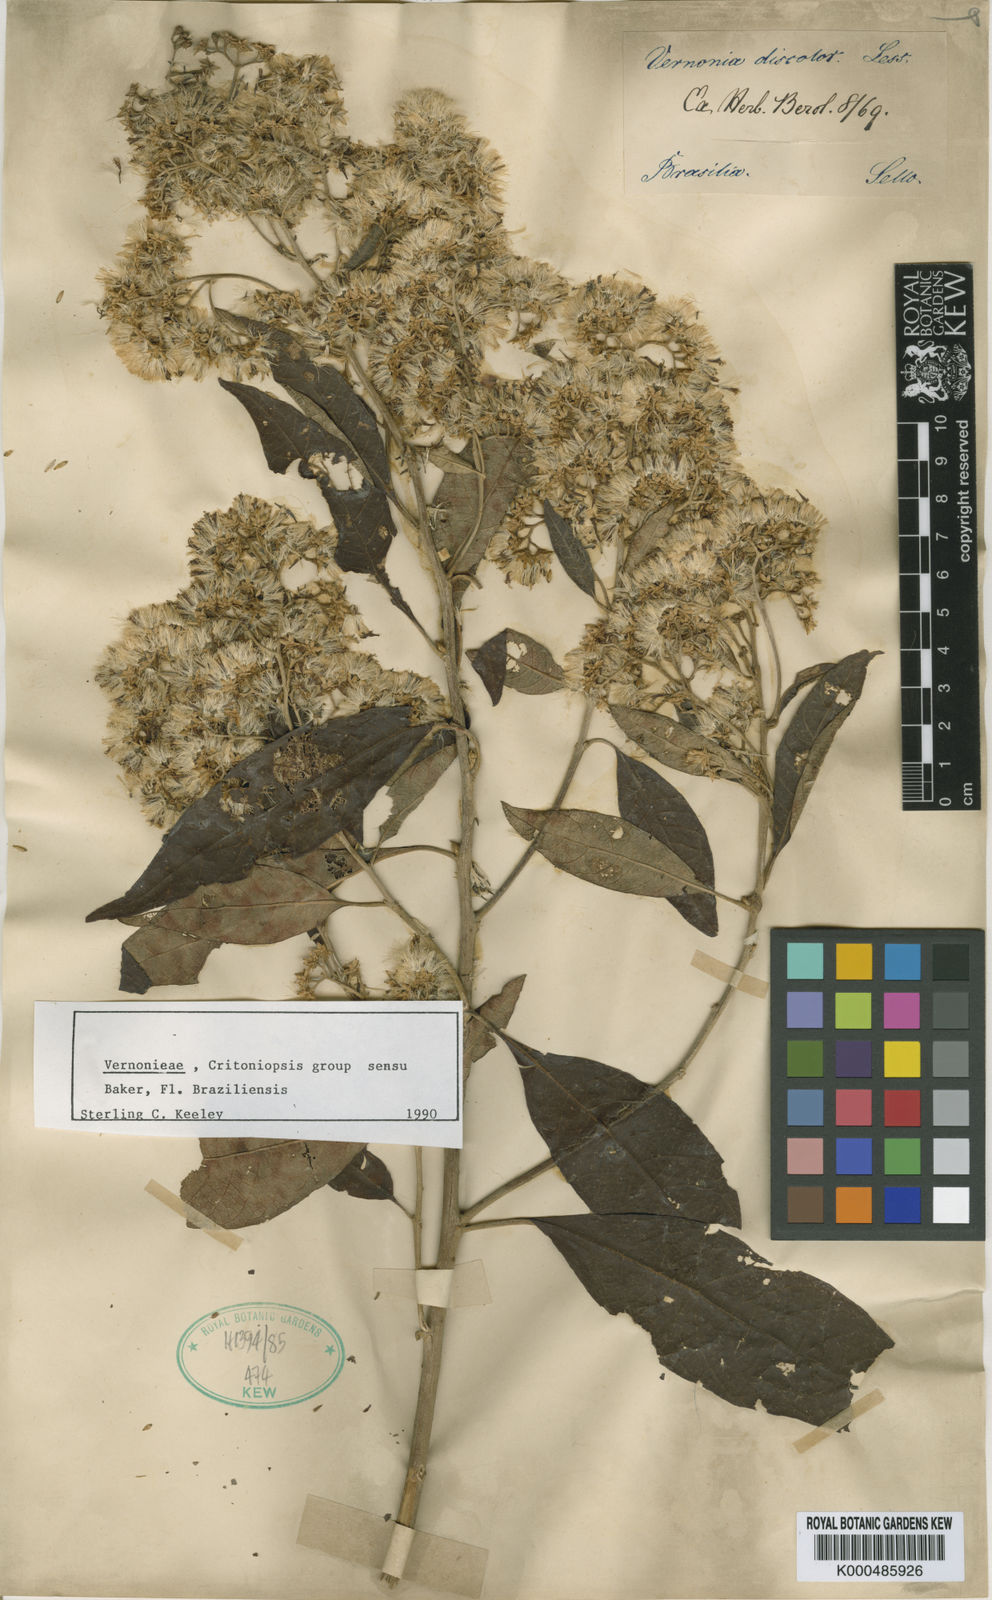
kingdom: Plantae
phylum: Tracheophyta
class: Magnoliopsida
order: Asterales
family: Asteraceae
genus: Vernonanthura
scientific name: Vernonanthura discolor
